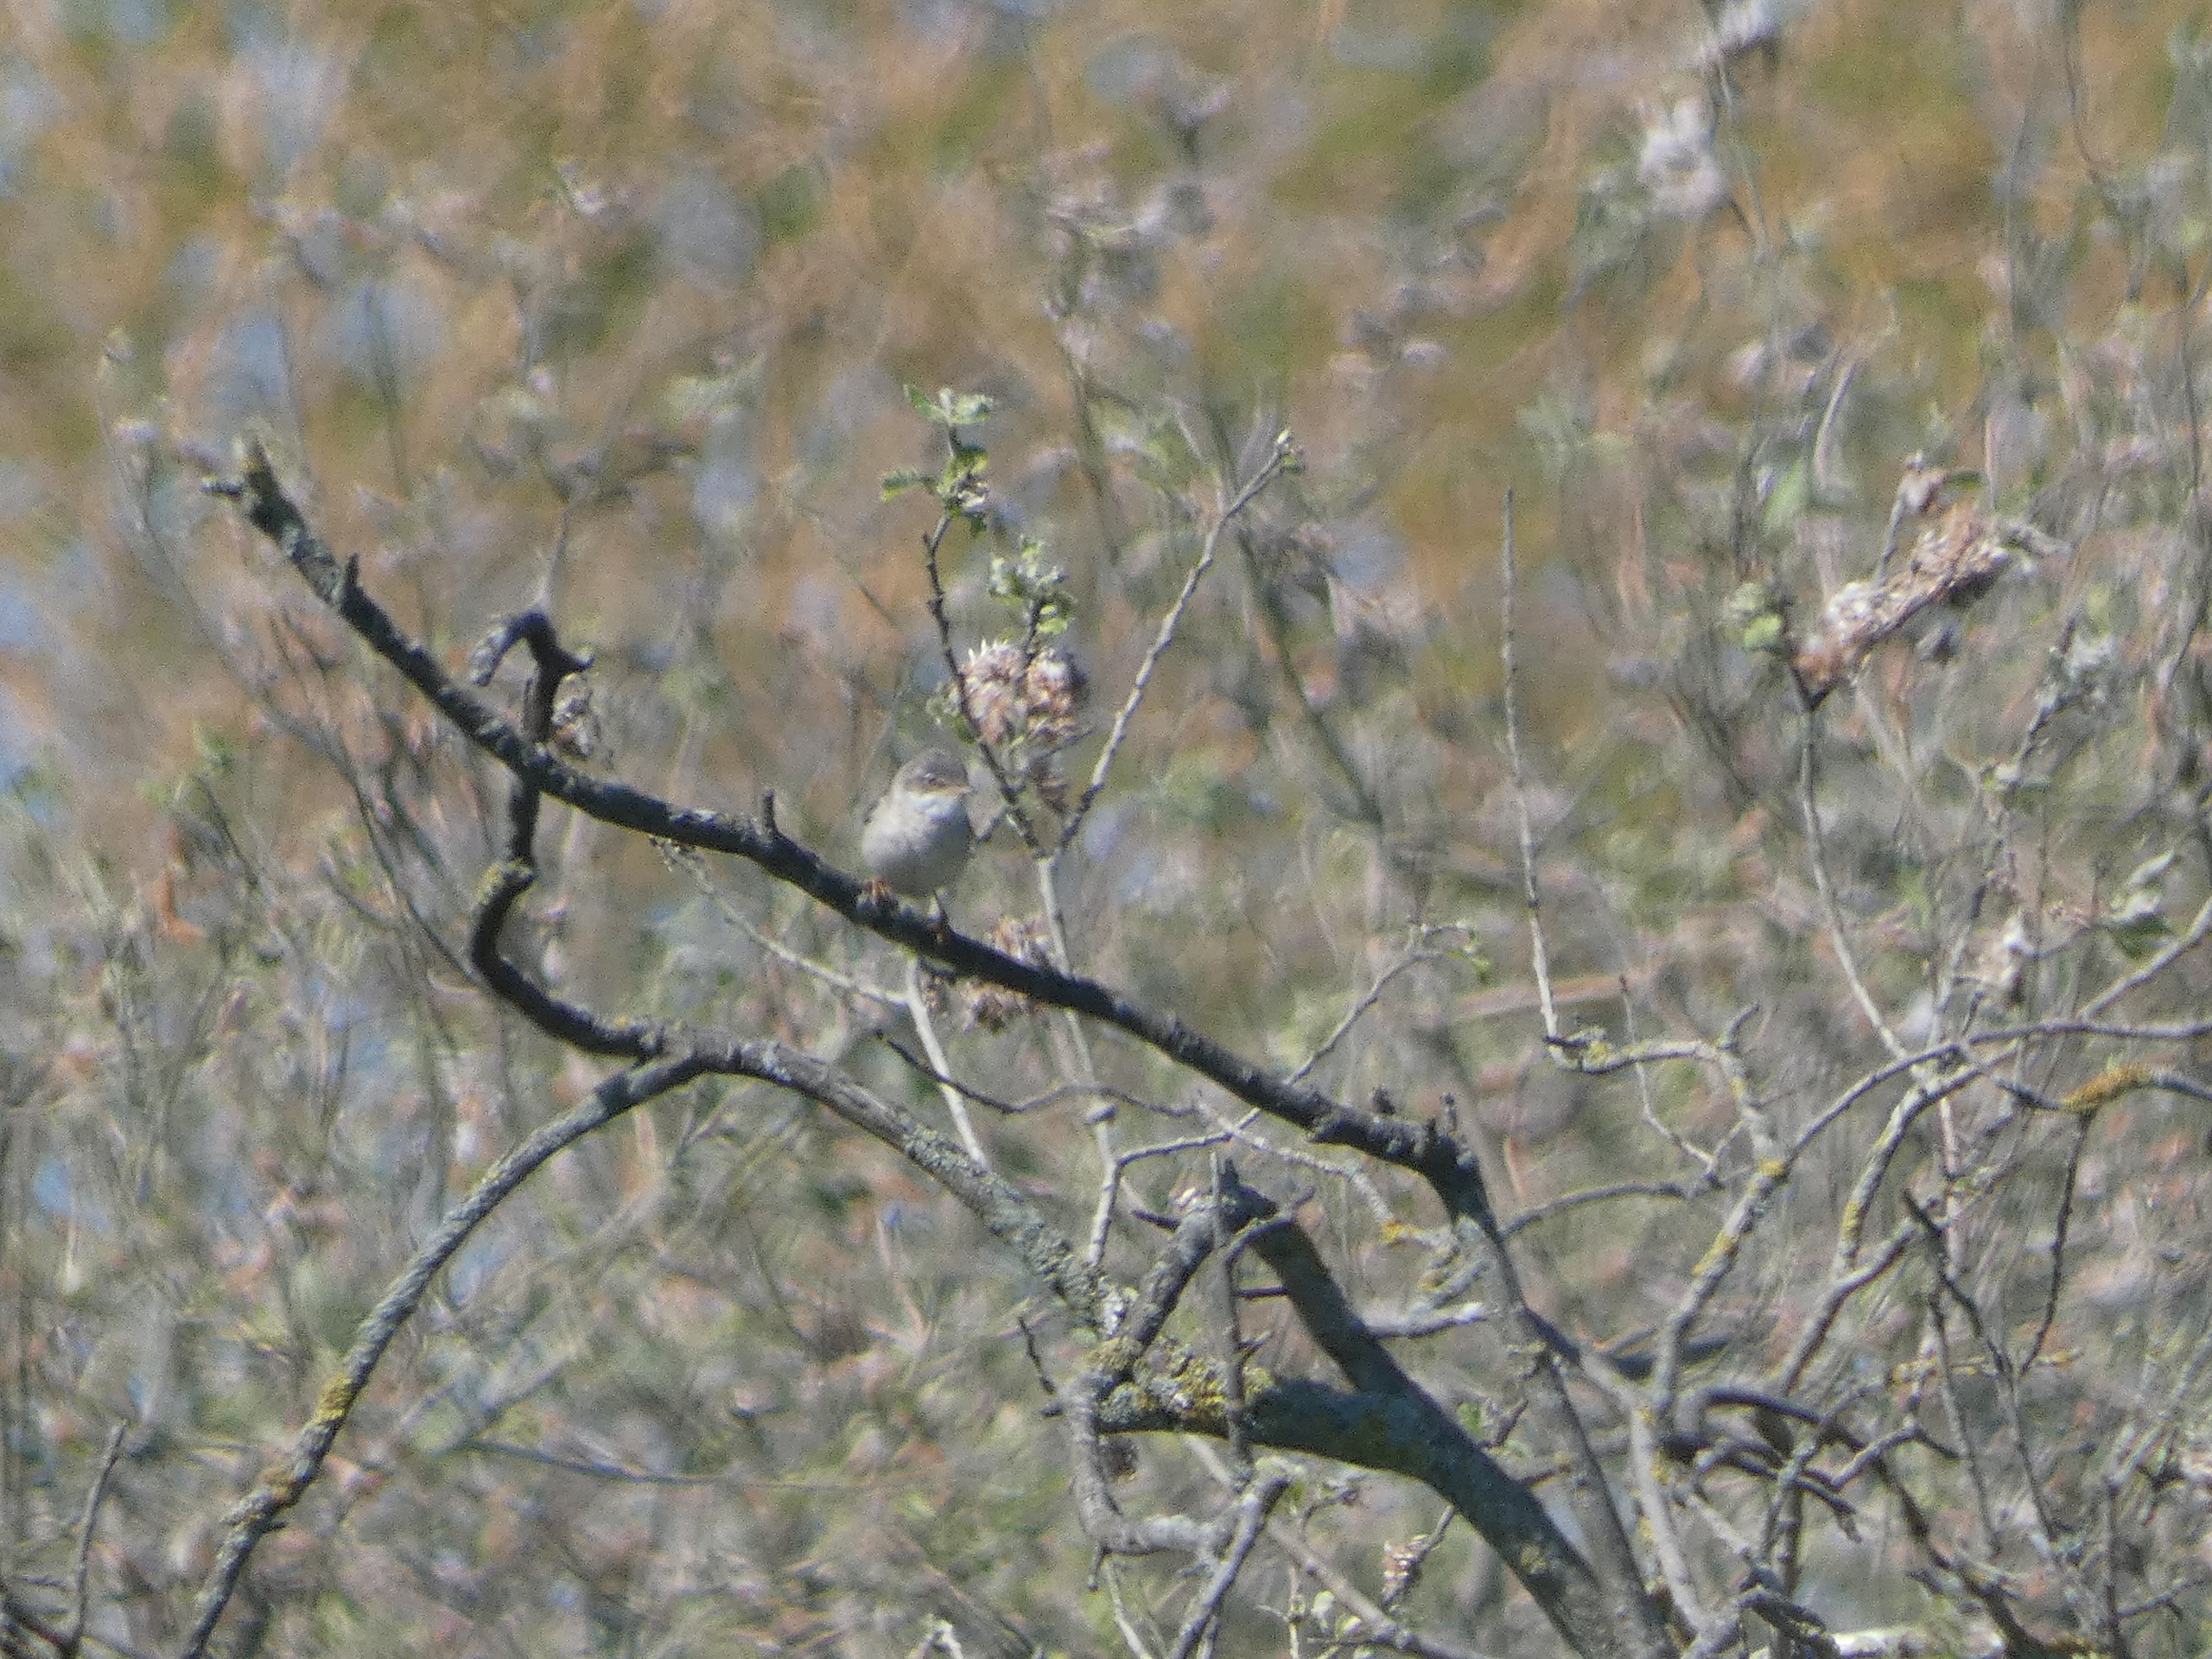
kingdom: Animalia
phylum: Chordata
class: Aves
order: Passeriformes
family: Sylviidae
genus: Sylvia
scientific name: Sylvia communis
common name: Tornsanger
